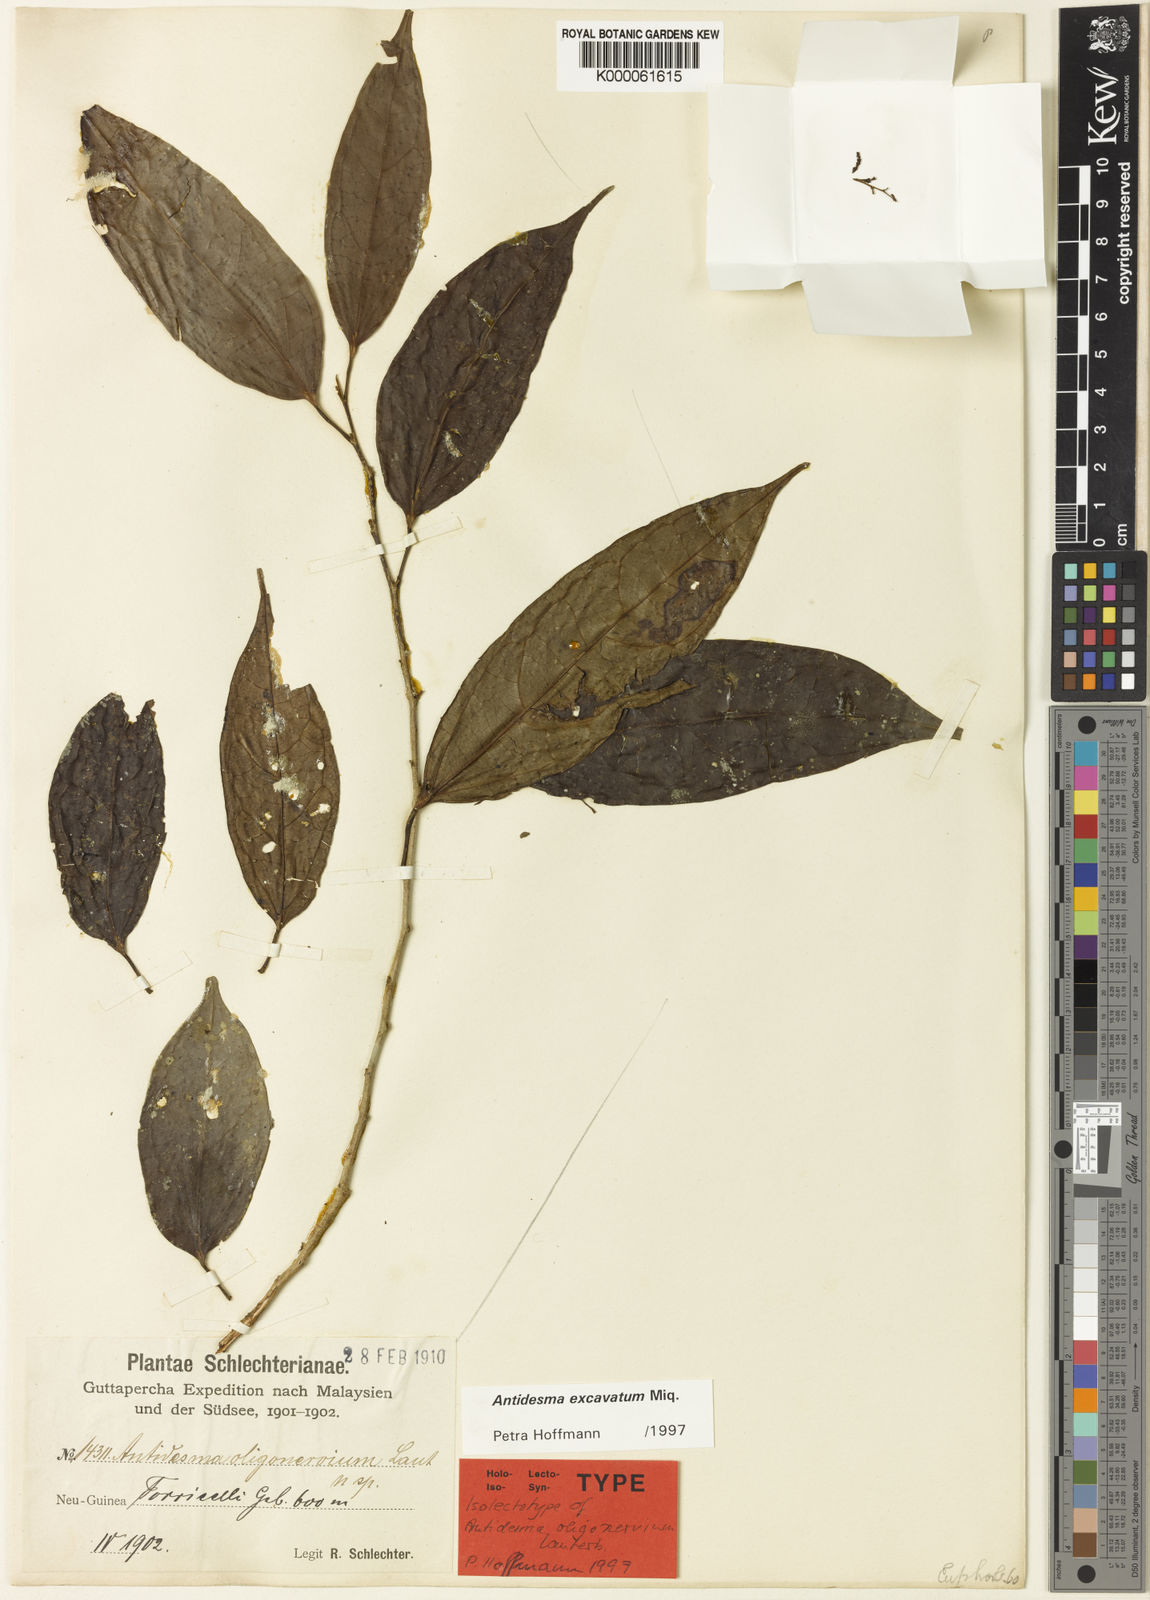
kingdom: Plantae
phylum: Tracheophyta
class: Magnoliopsida
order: Malpighiales
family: Phyllanthaceae
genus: Antidesma
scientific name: Antidesma excavatum
